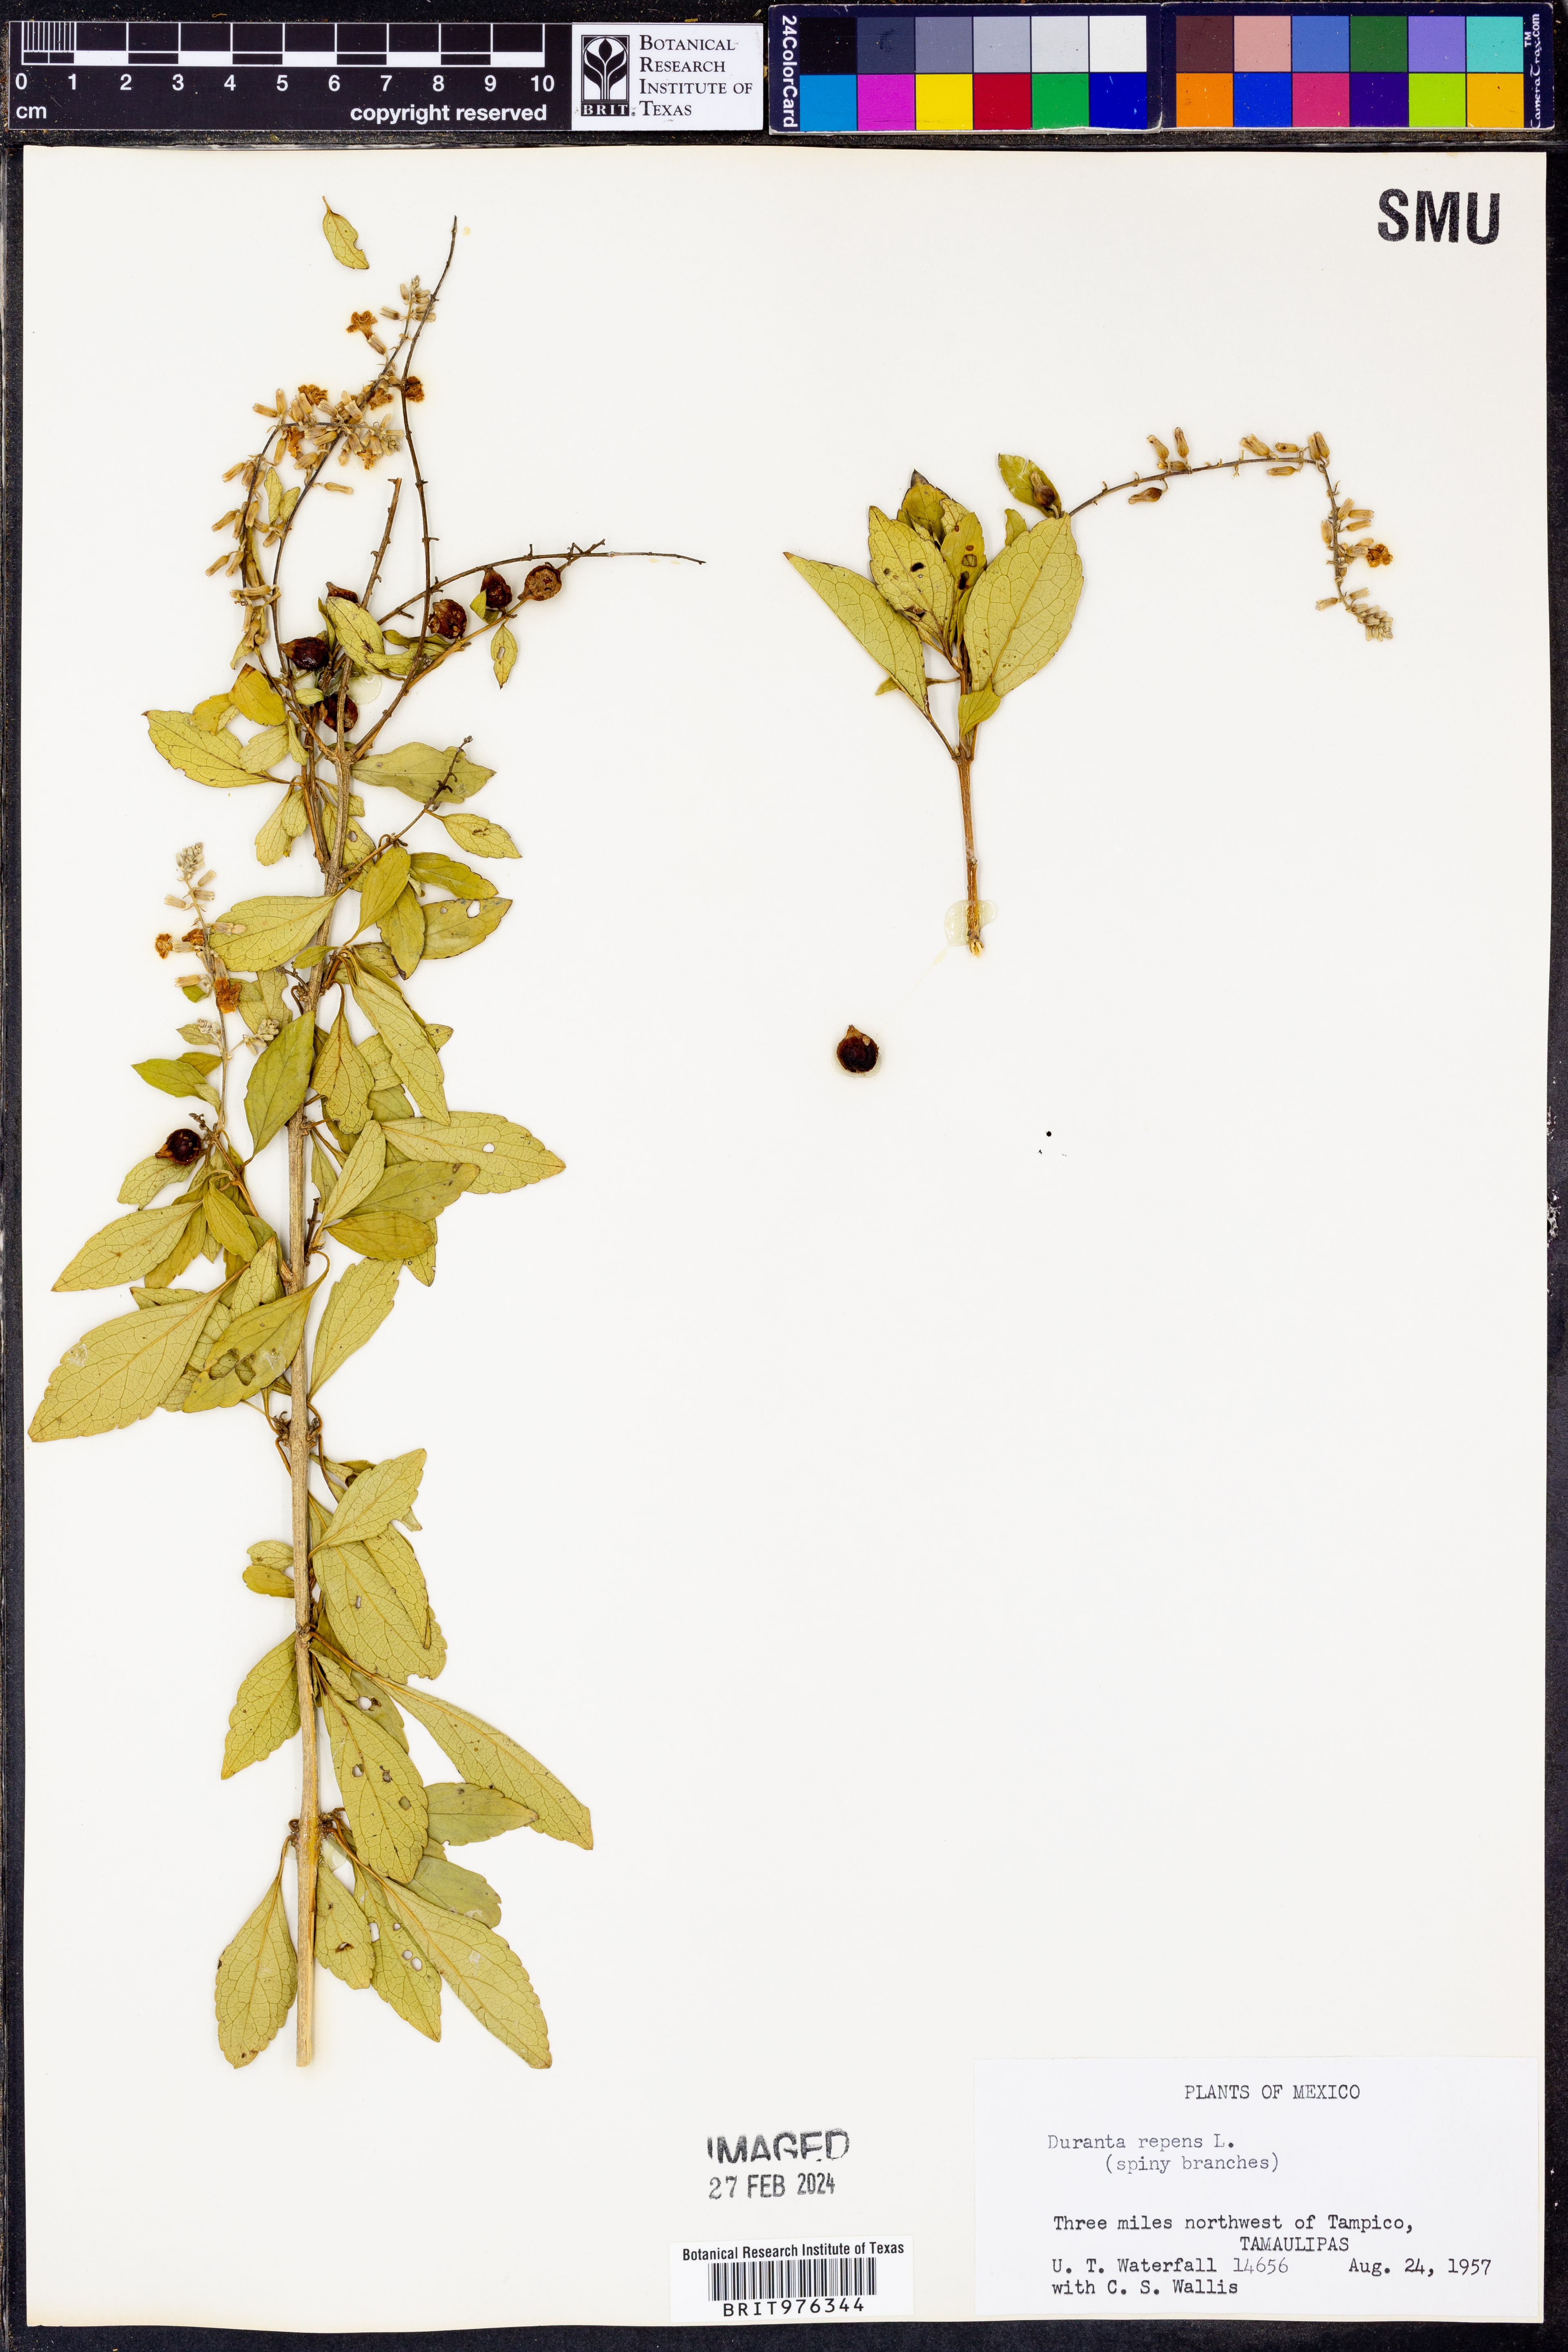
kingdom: Plantae
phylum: Tracheophyta
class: Magnoliopsida
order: Lamiales
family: Verbenaceae
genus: Duranta
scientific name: Duranta
